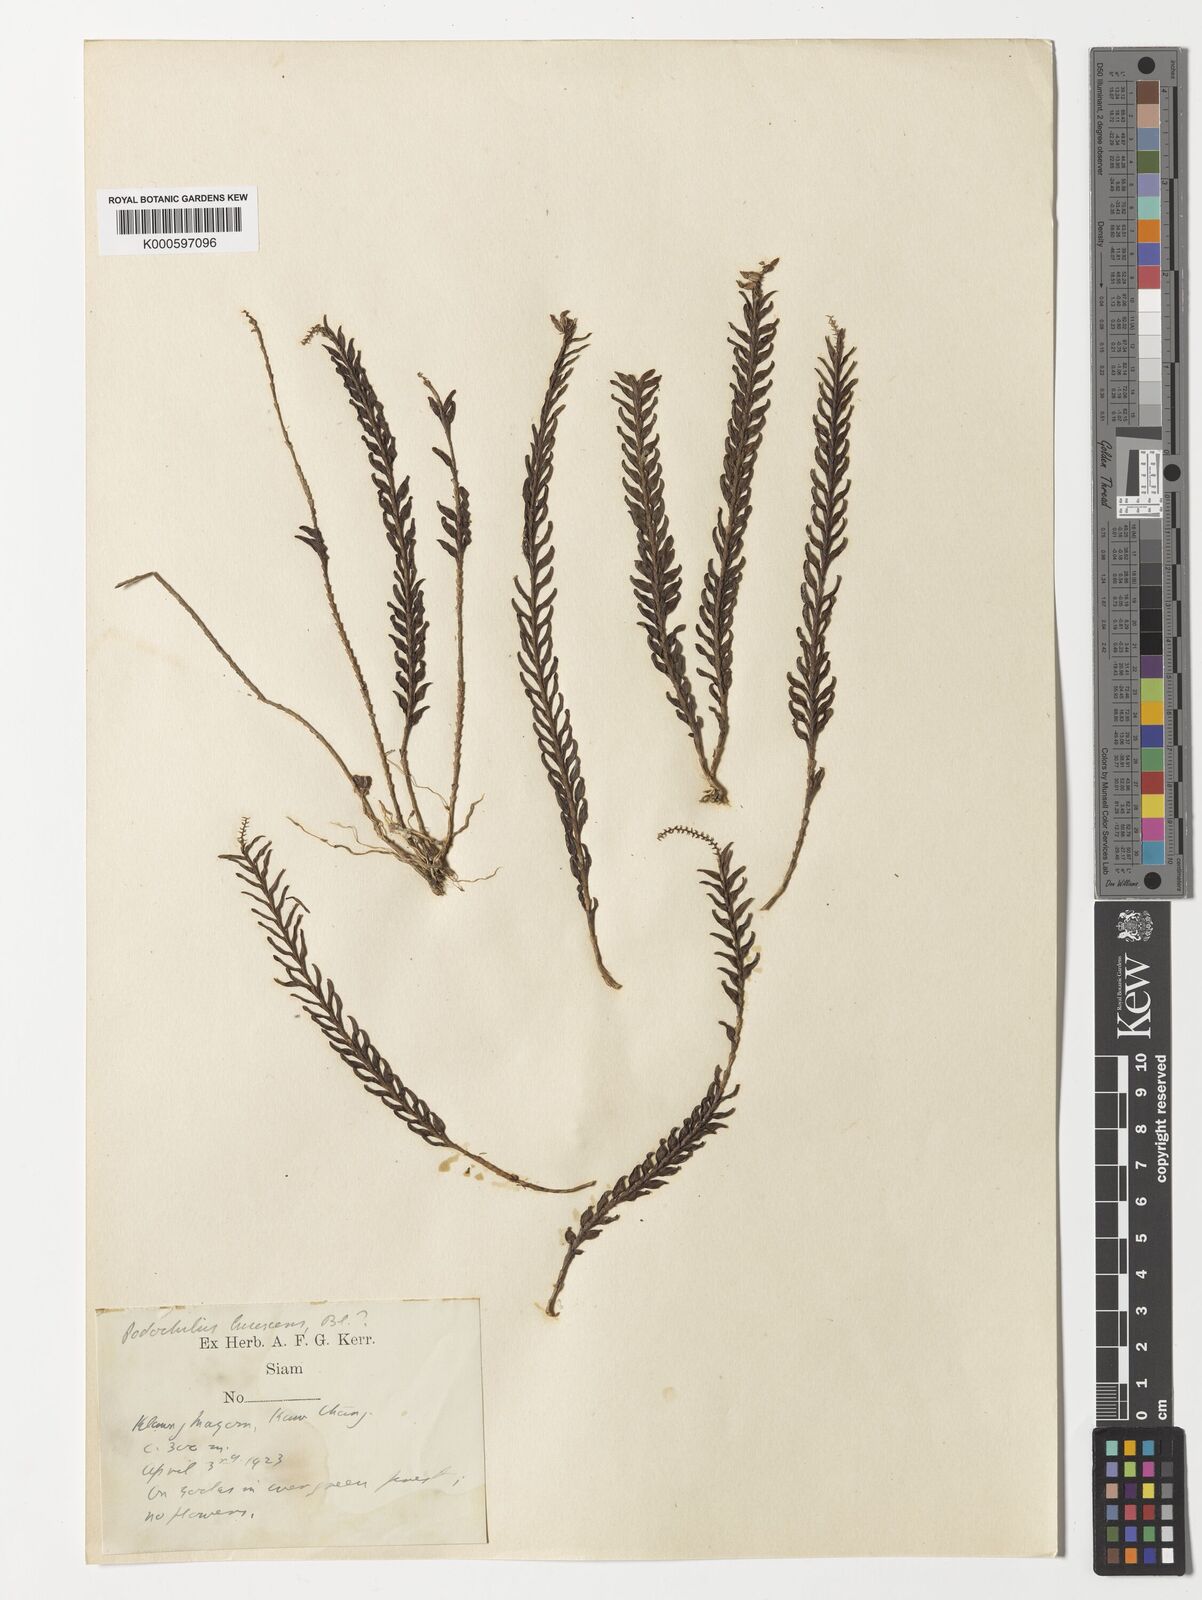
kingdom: Plantae
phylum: Tracheophyta
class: Liliopsida
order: Asparagales
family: Orchidaceae
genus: Podochilus
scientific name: Podochilus lucescens
